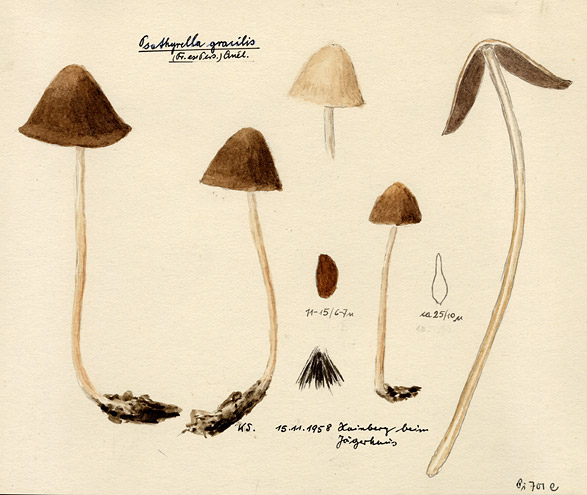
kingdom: Fungi
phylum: Basidiomycota
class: Agaricomycetes
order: Agaricales
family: Psathyrellaceae
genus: Psathyrella
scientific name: Psathyrella corrugis
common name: Red edge brittlestem
